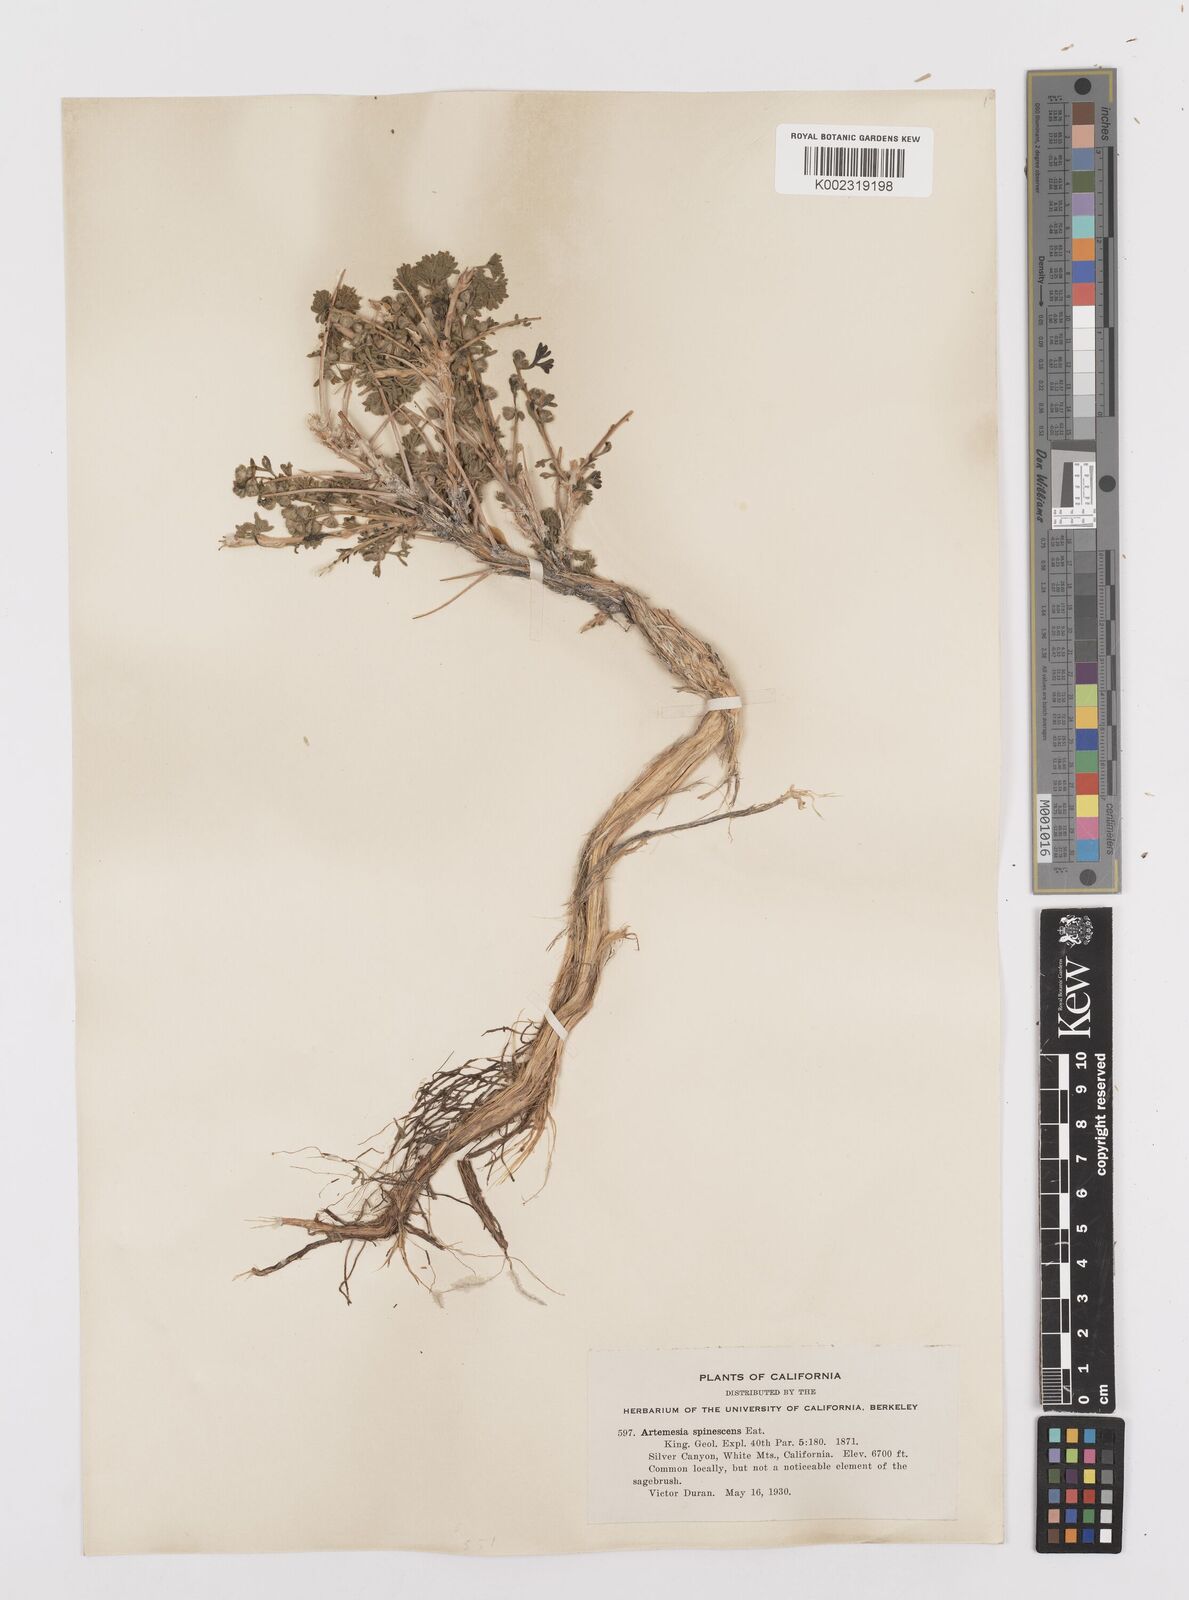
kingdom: Plantae
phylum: Tracheophyta
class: Magnoliopsida
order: Asterales
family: Asteraceae
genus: Artemisia
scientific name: Artemisia spinescens
